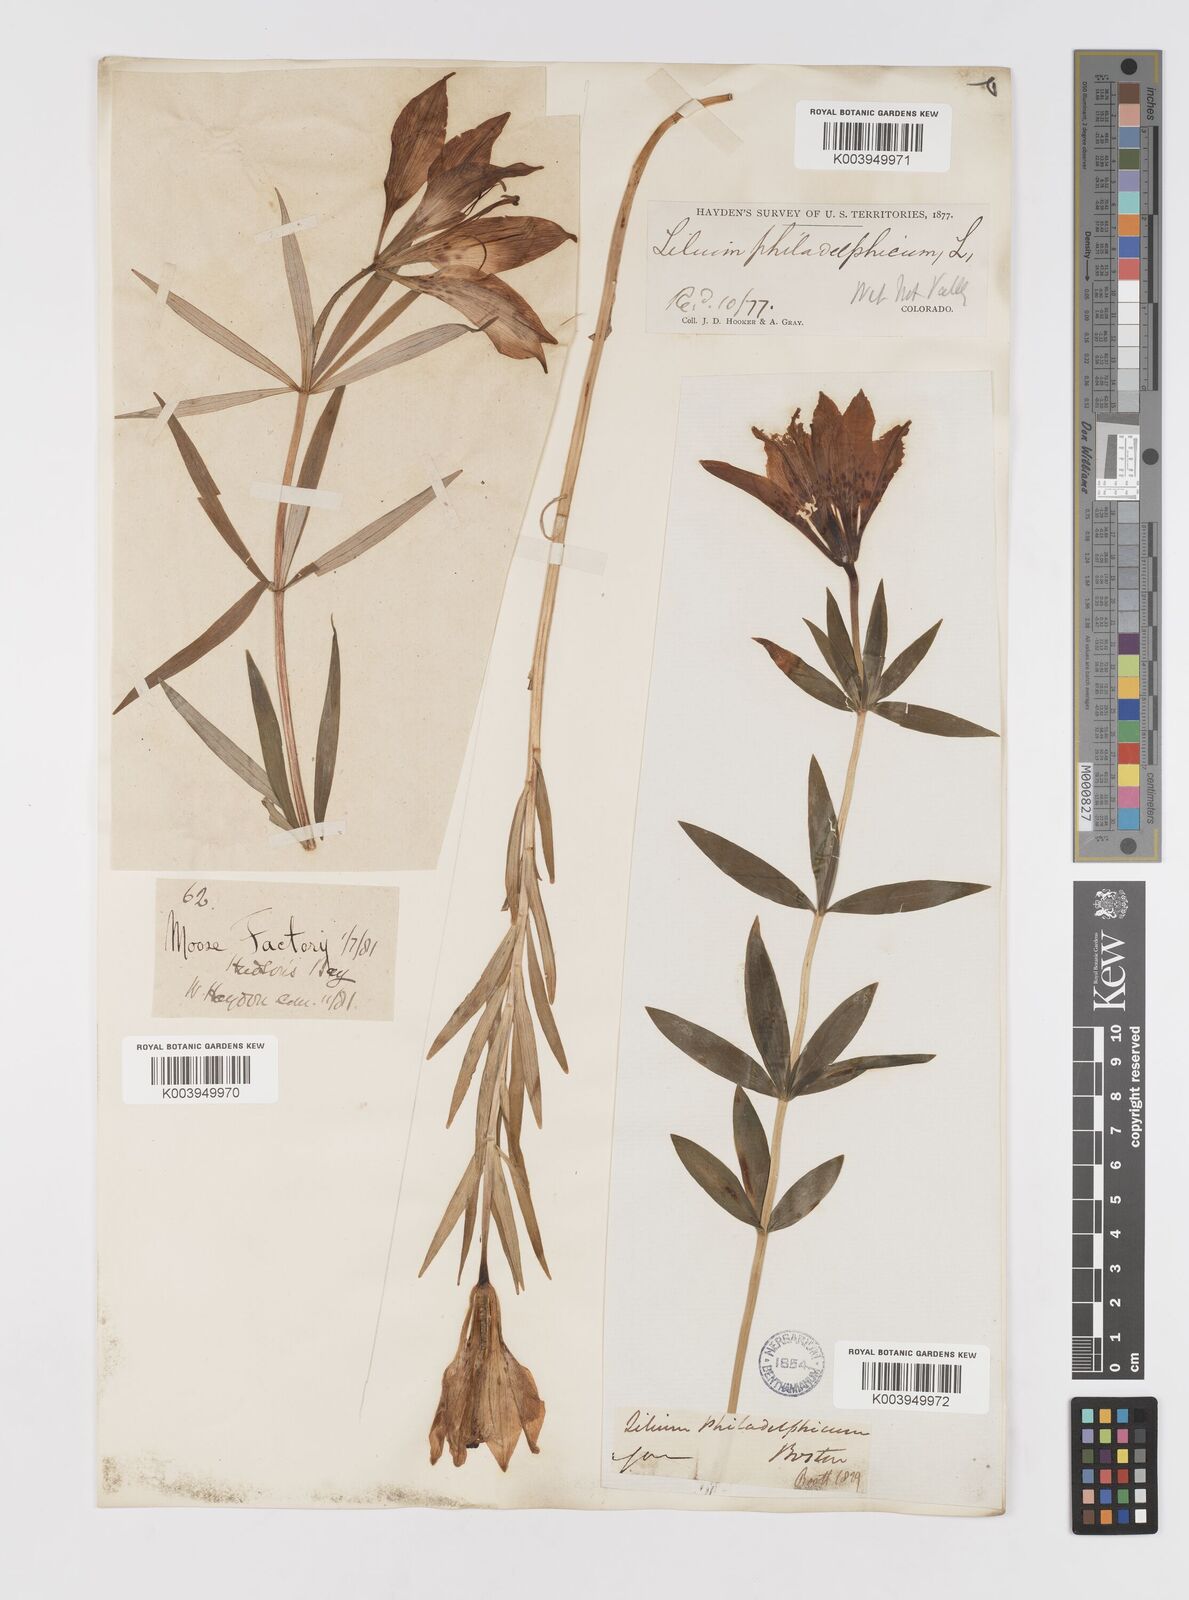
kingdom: Plantae
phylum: Tracheophyta
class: Liliopsida
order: Liliales
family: Liliaceae
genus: Lilium
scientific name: Lilium philadelphicum
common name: Red lily
